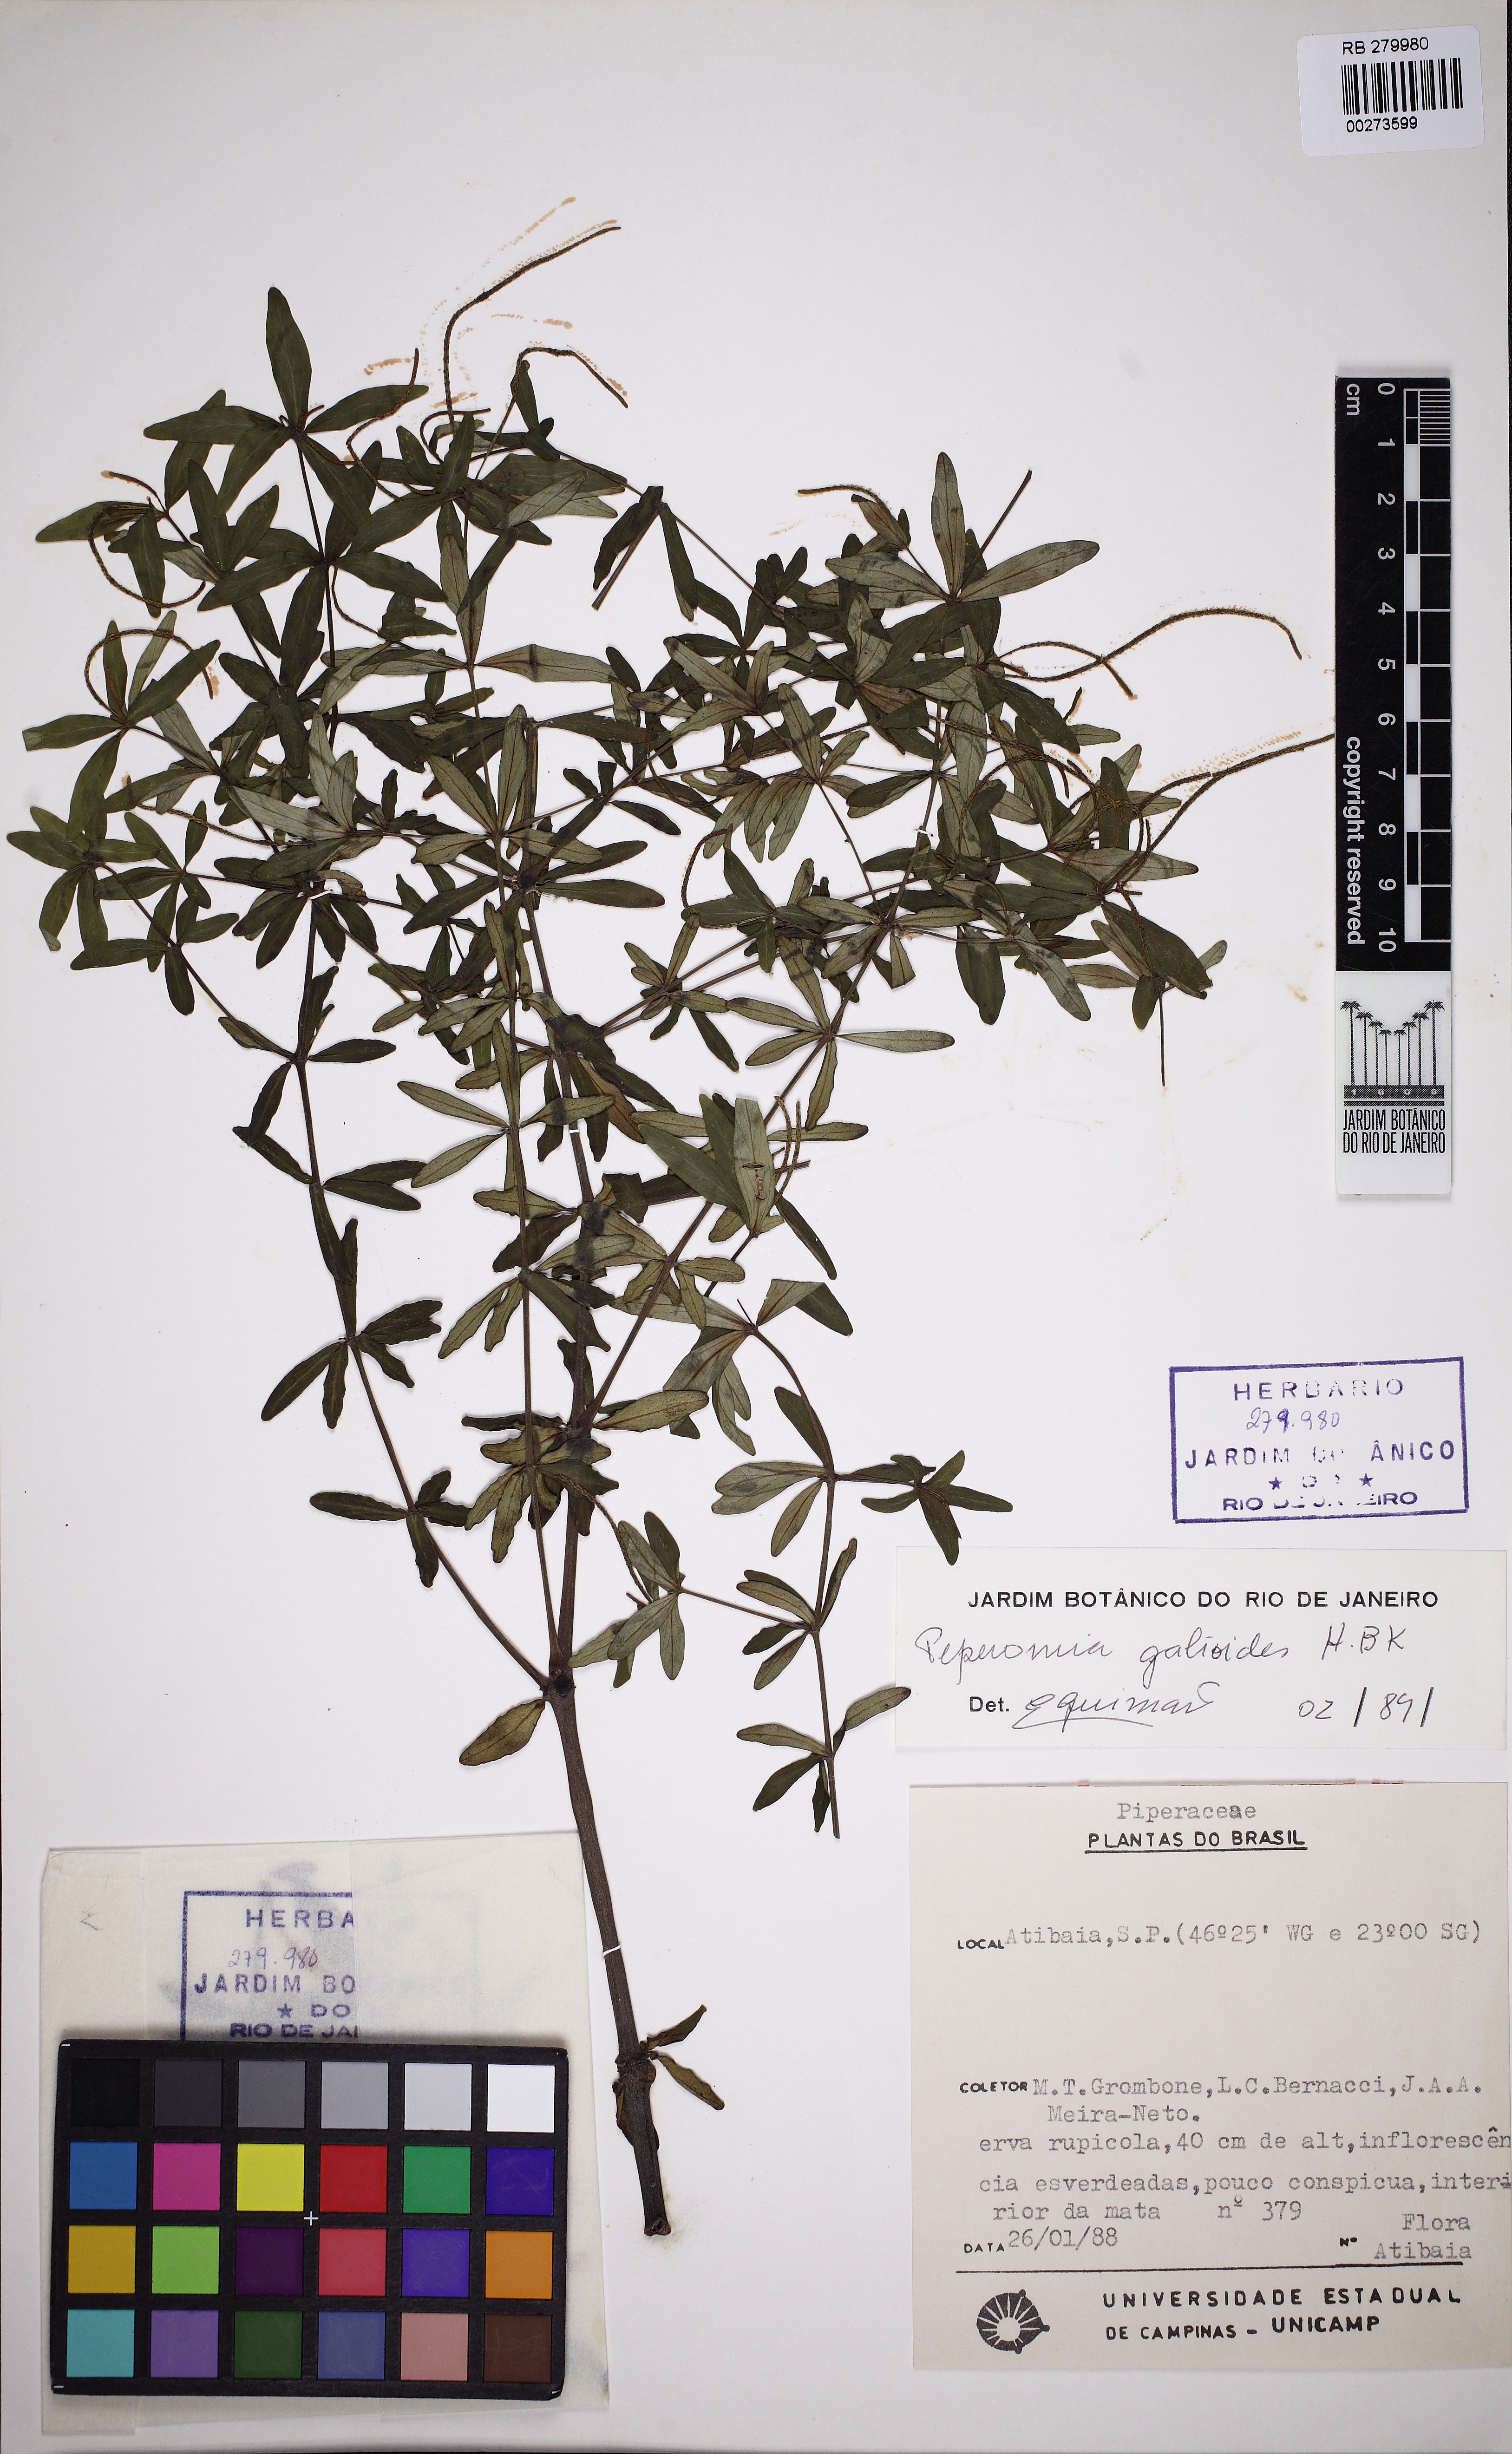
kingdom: Plantae
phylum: Tracheophyta
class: Magnoliopsida
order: Piperales
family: Piperaceae
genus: Peperomia
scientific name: Peperomia galioides
